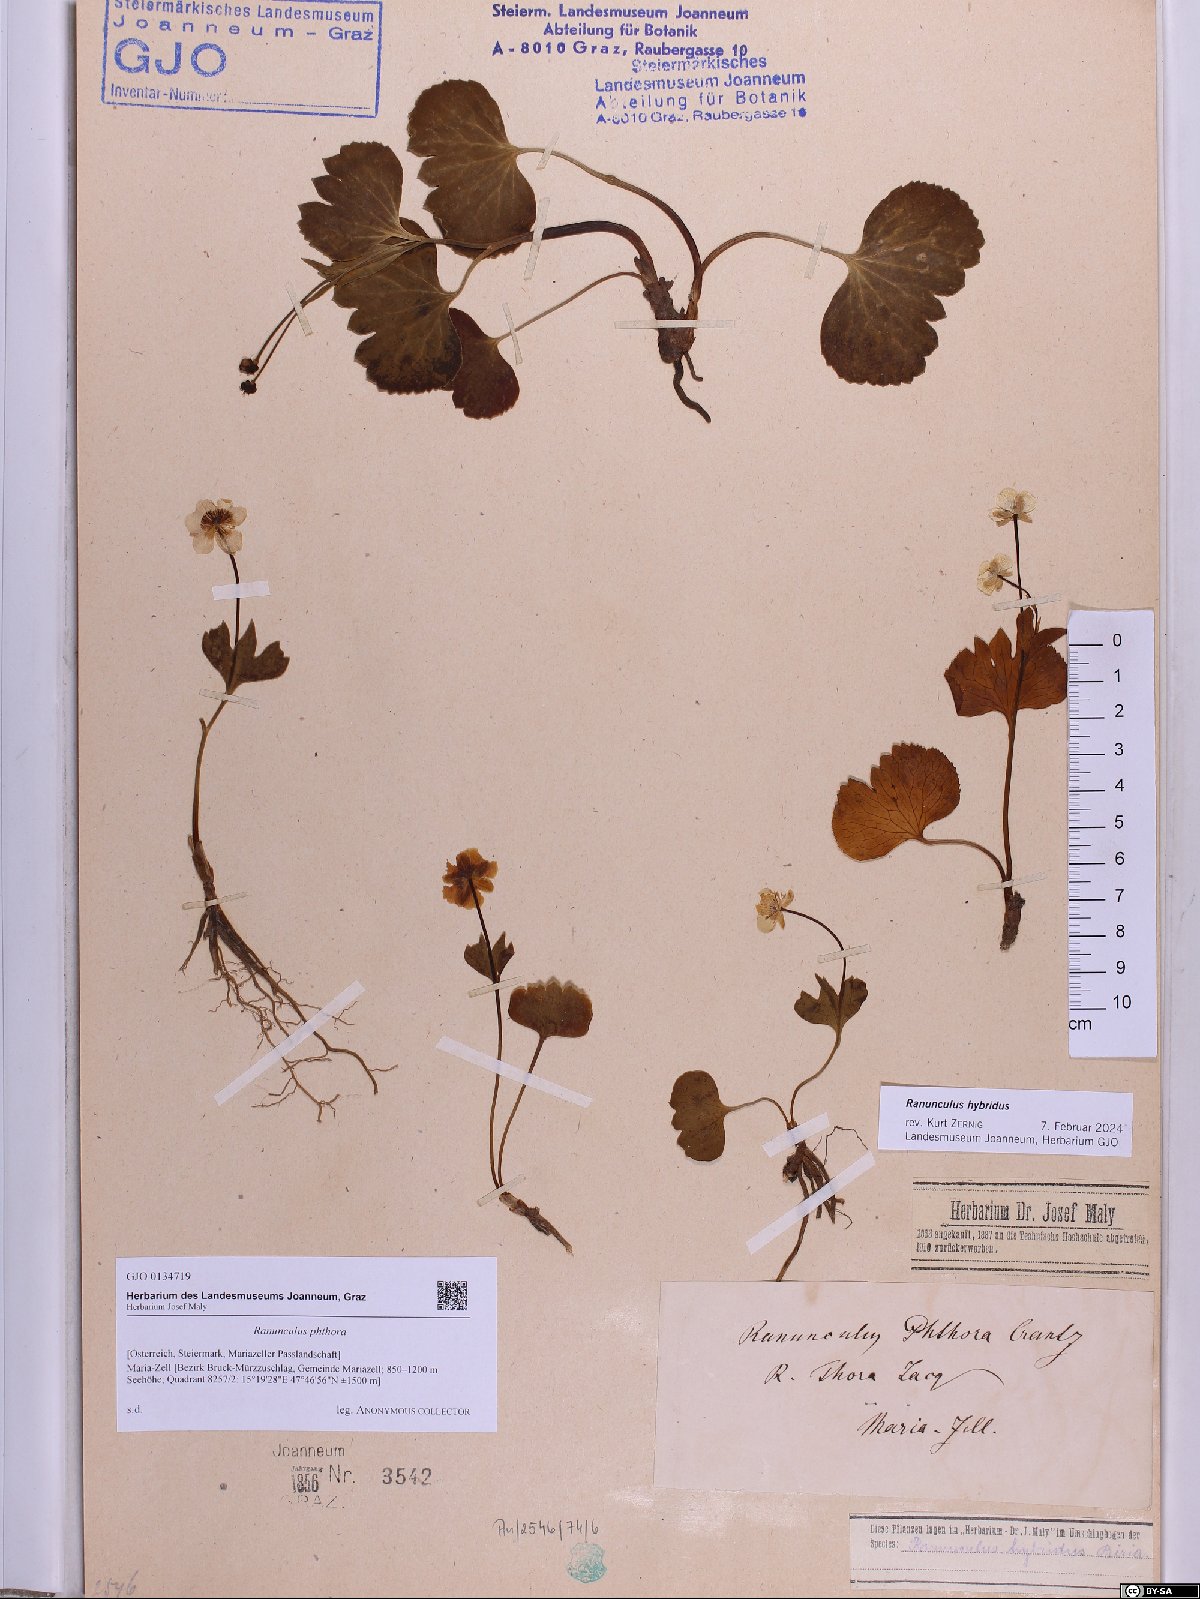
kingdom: Plantae
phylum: Tracheophyta
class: Magnoliopsida
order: Ranunculales
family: Ranunculaceae
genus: Ranunculus
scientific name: Ranunculus phthora
